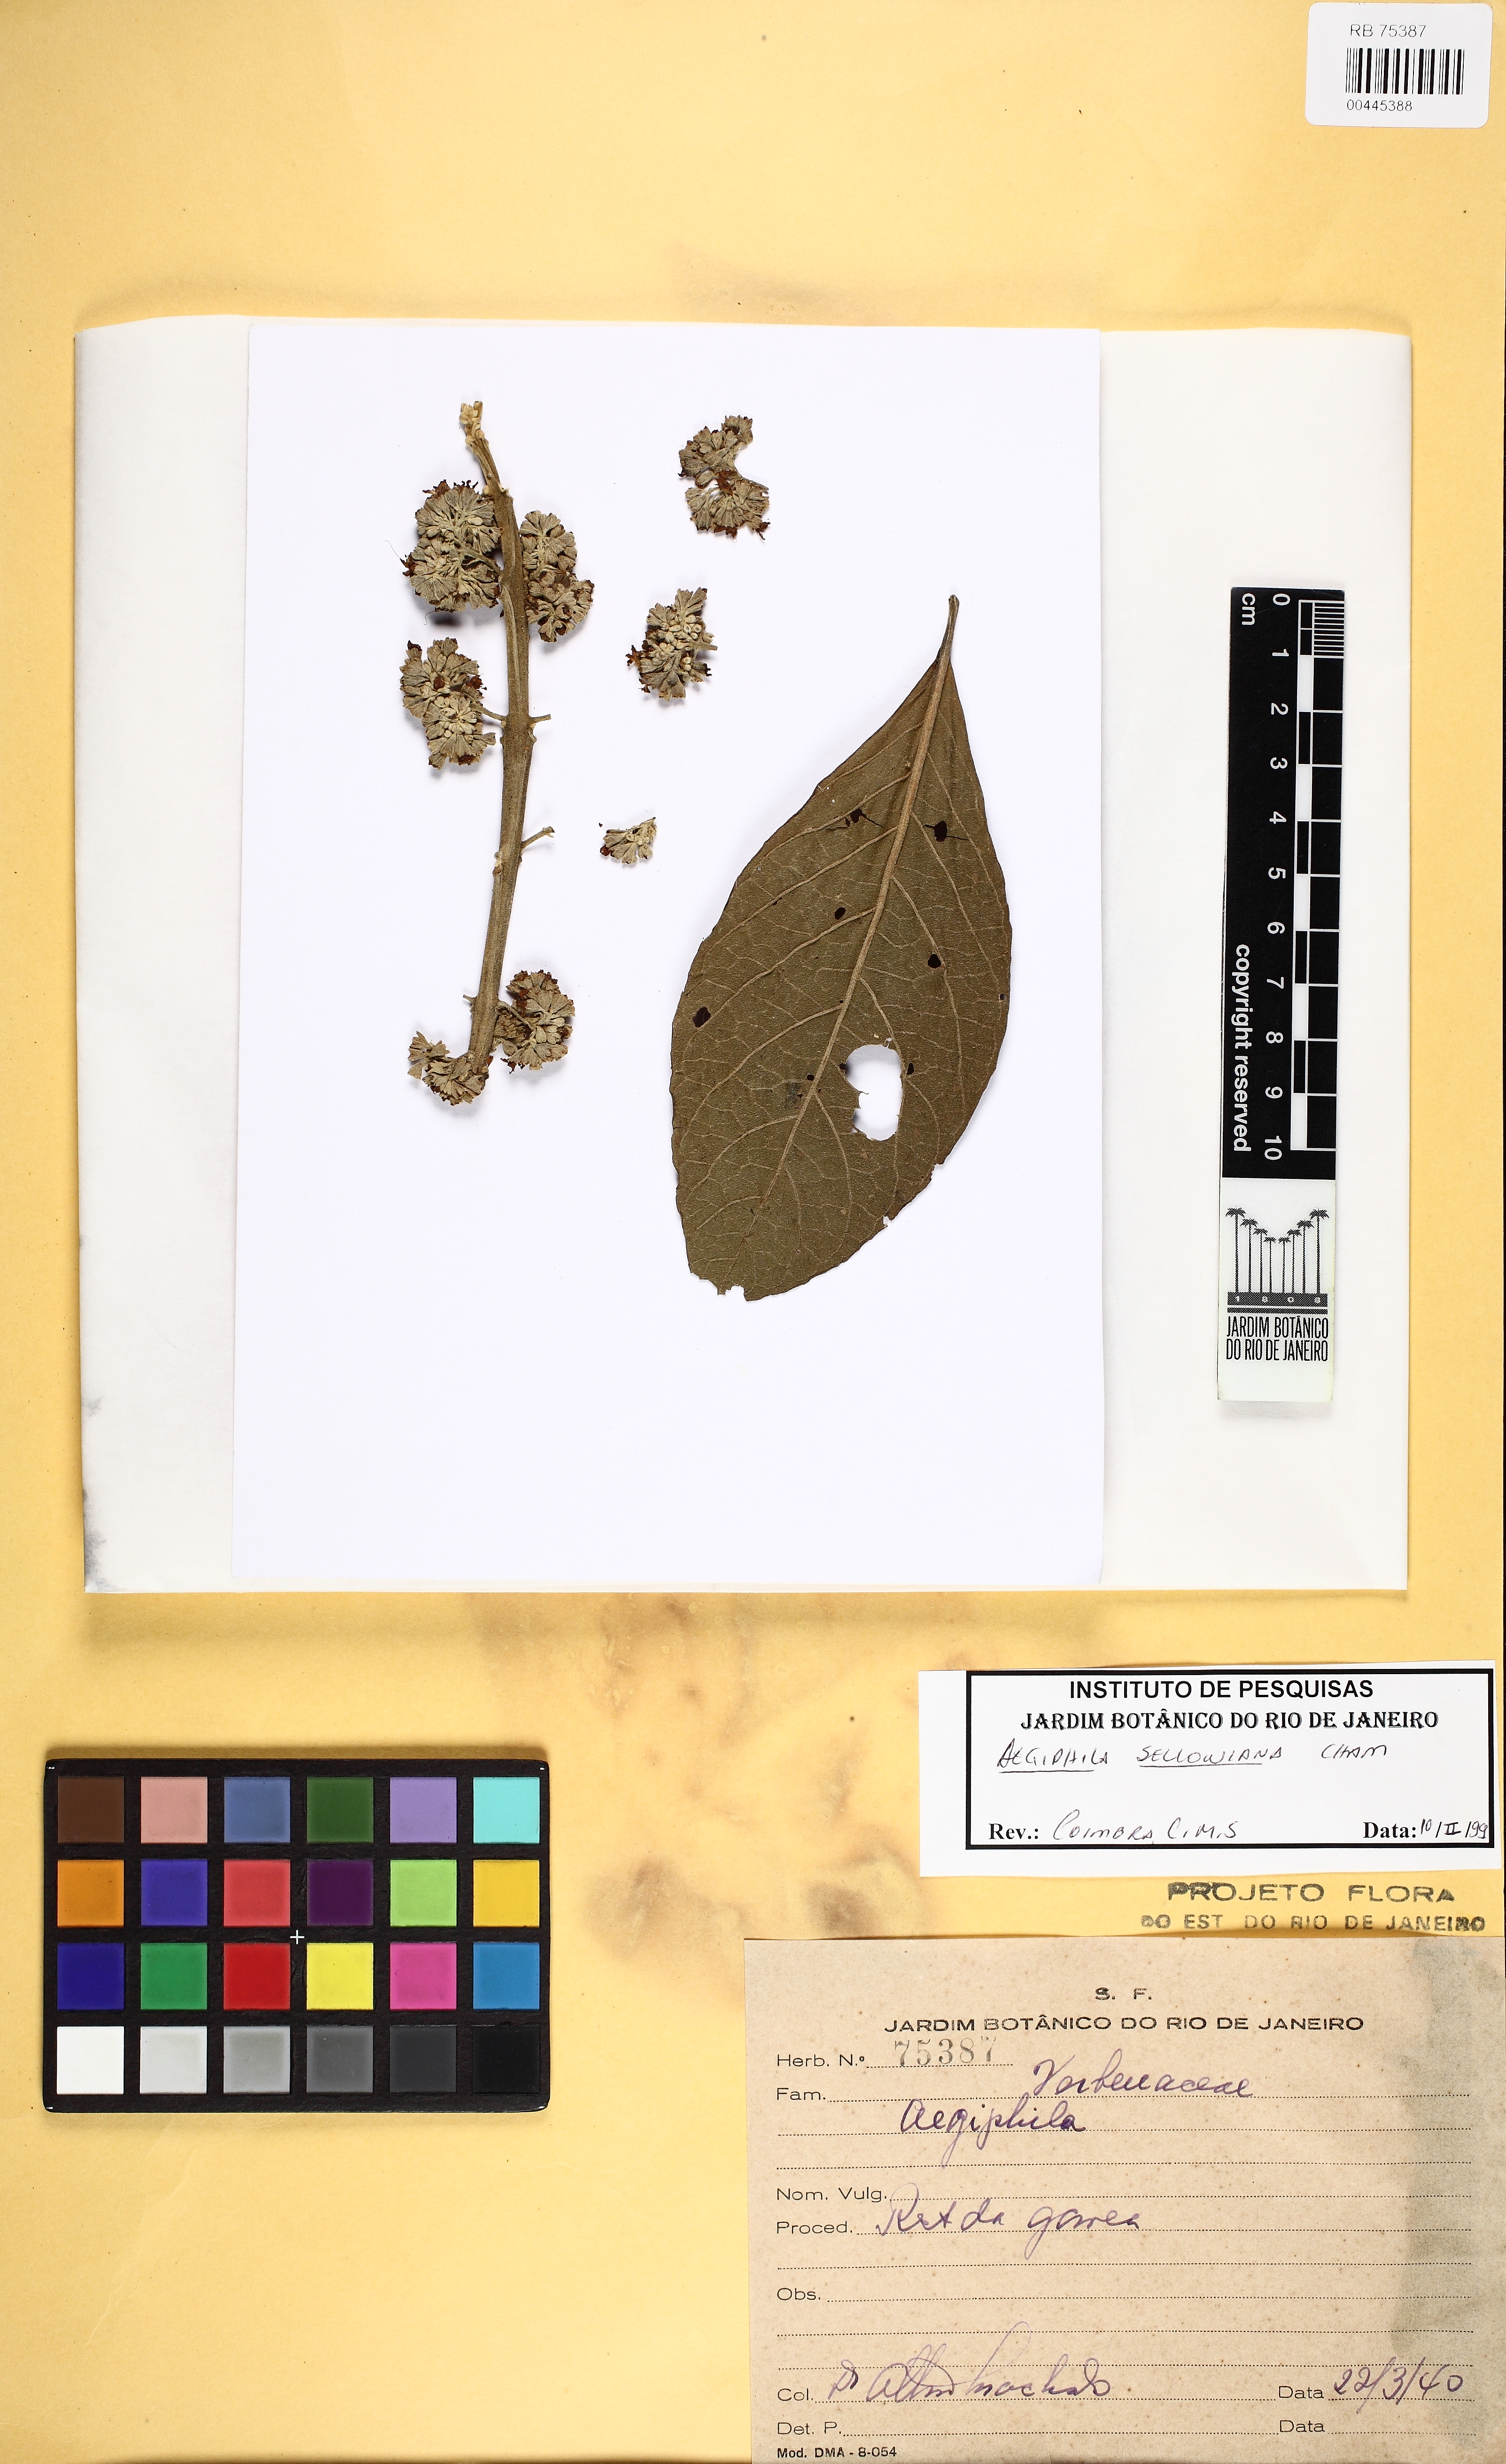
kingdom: Plantae
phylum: Tracheophyta
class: Magnoliopsida
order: Lamiales
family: Lamiaceae
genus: Aegiphila
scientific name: Aegiphila verticillata
